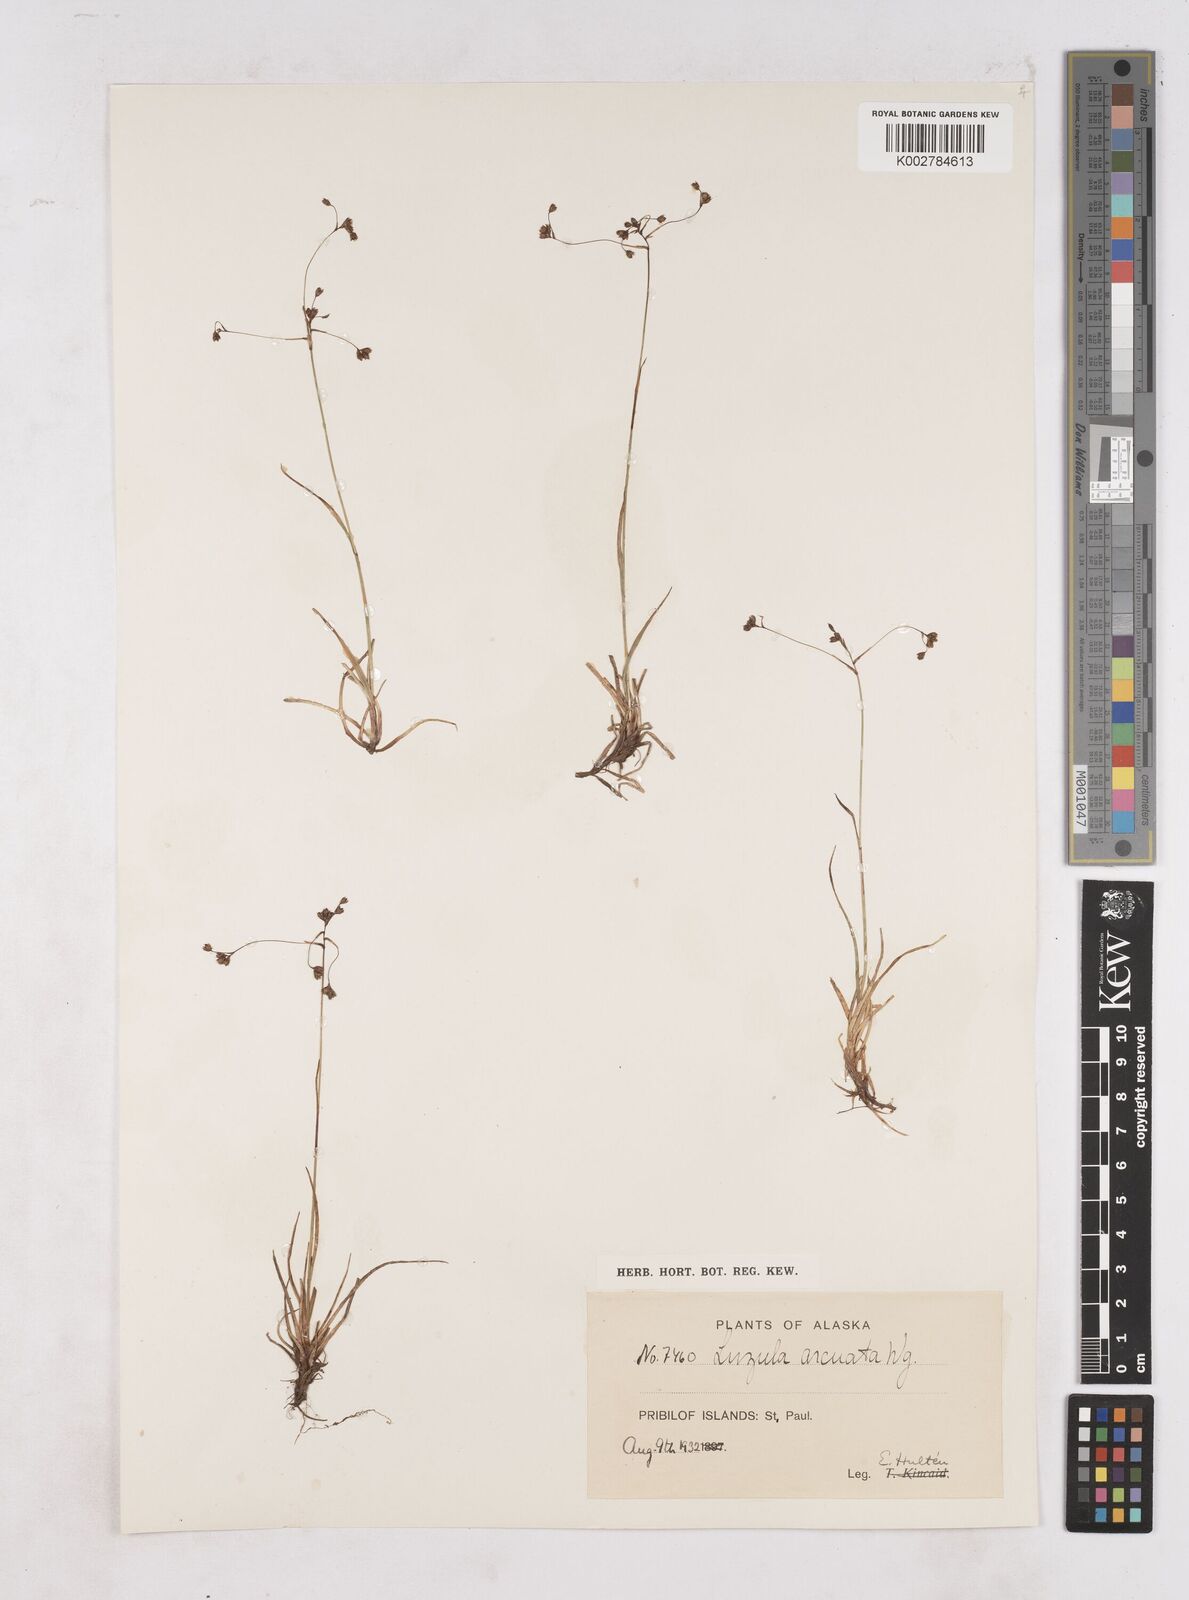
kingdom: Plantae
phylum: Tracheophyta
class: Liliopsida
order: Poales
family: Juncaceae
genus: Luzula
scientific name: Luzula arcuata
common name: Curved wood-rush
